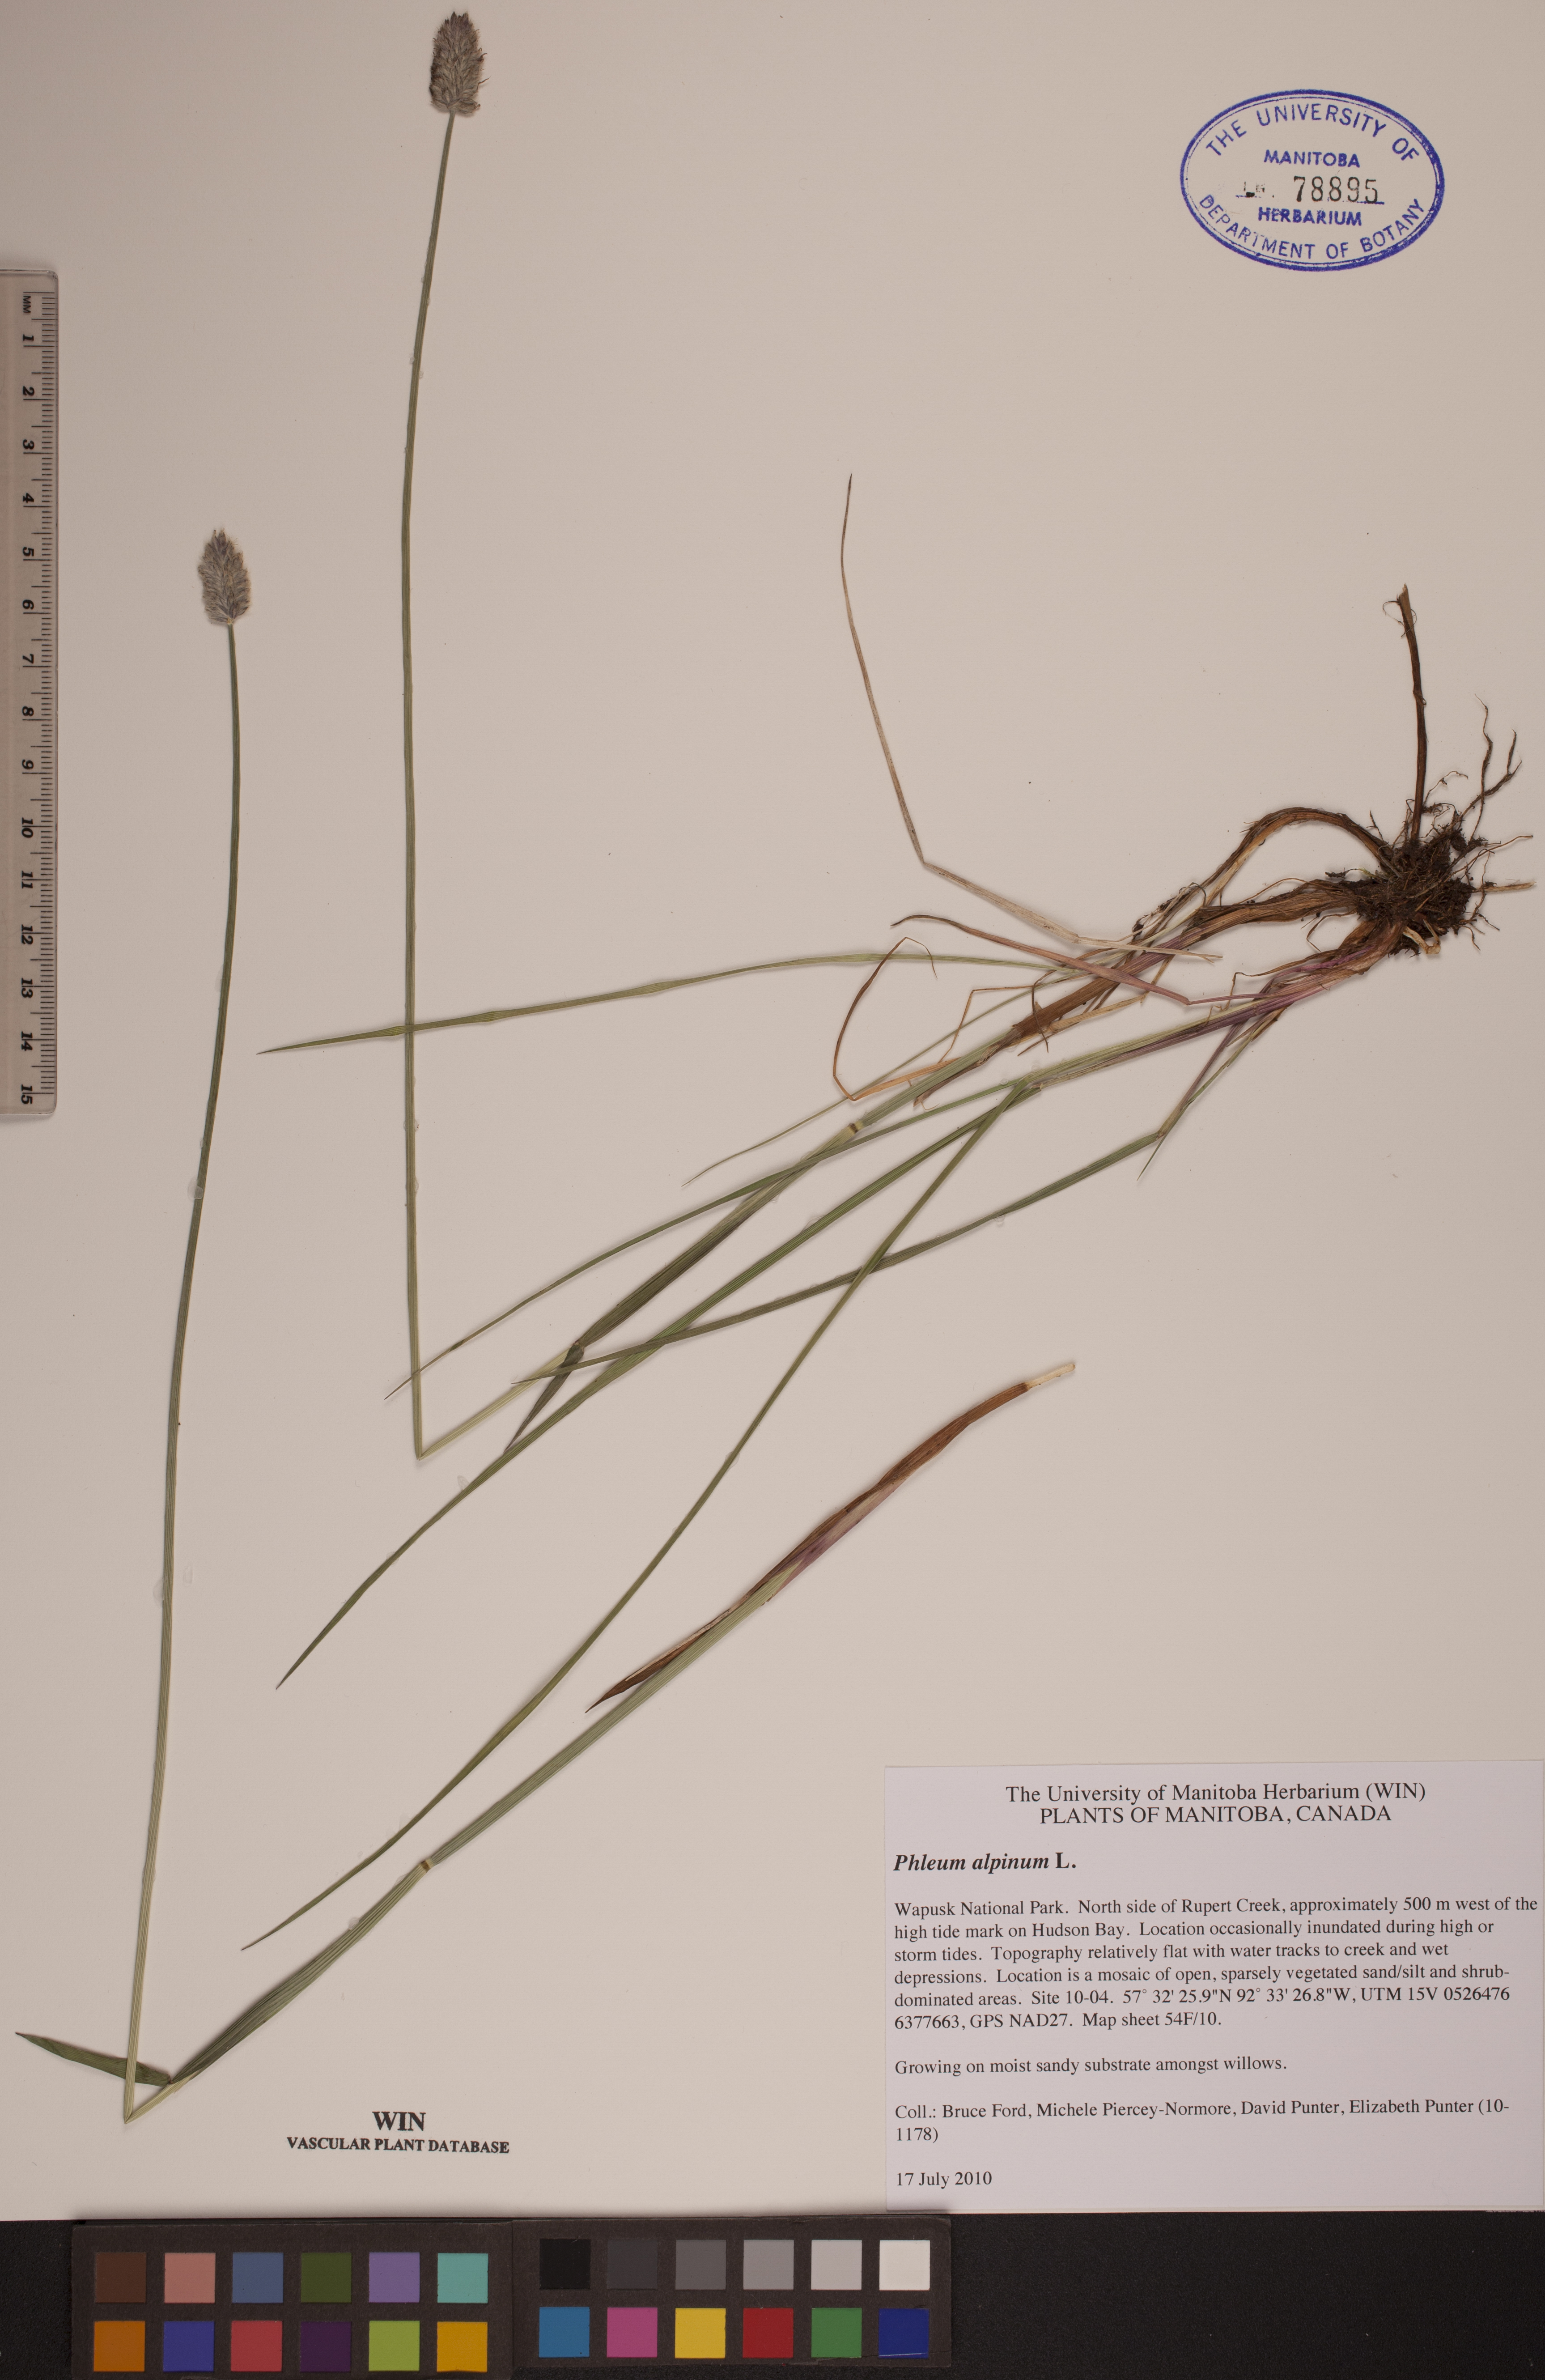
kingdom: Plantae
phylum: Tracheophyta
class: Liliopsida
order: Poales
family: Poaceae
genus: Phleum
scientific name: Phleum alpinum
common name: Alpine cat's-tail
